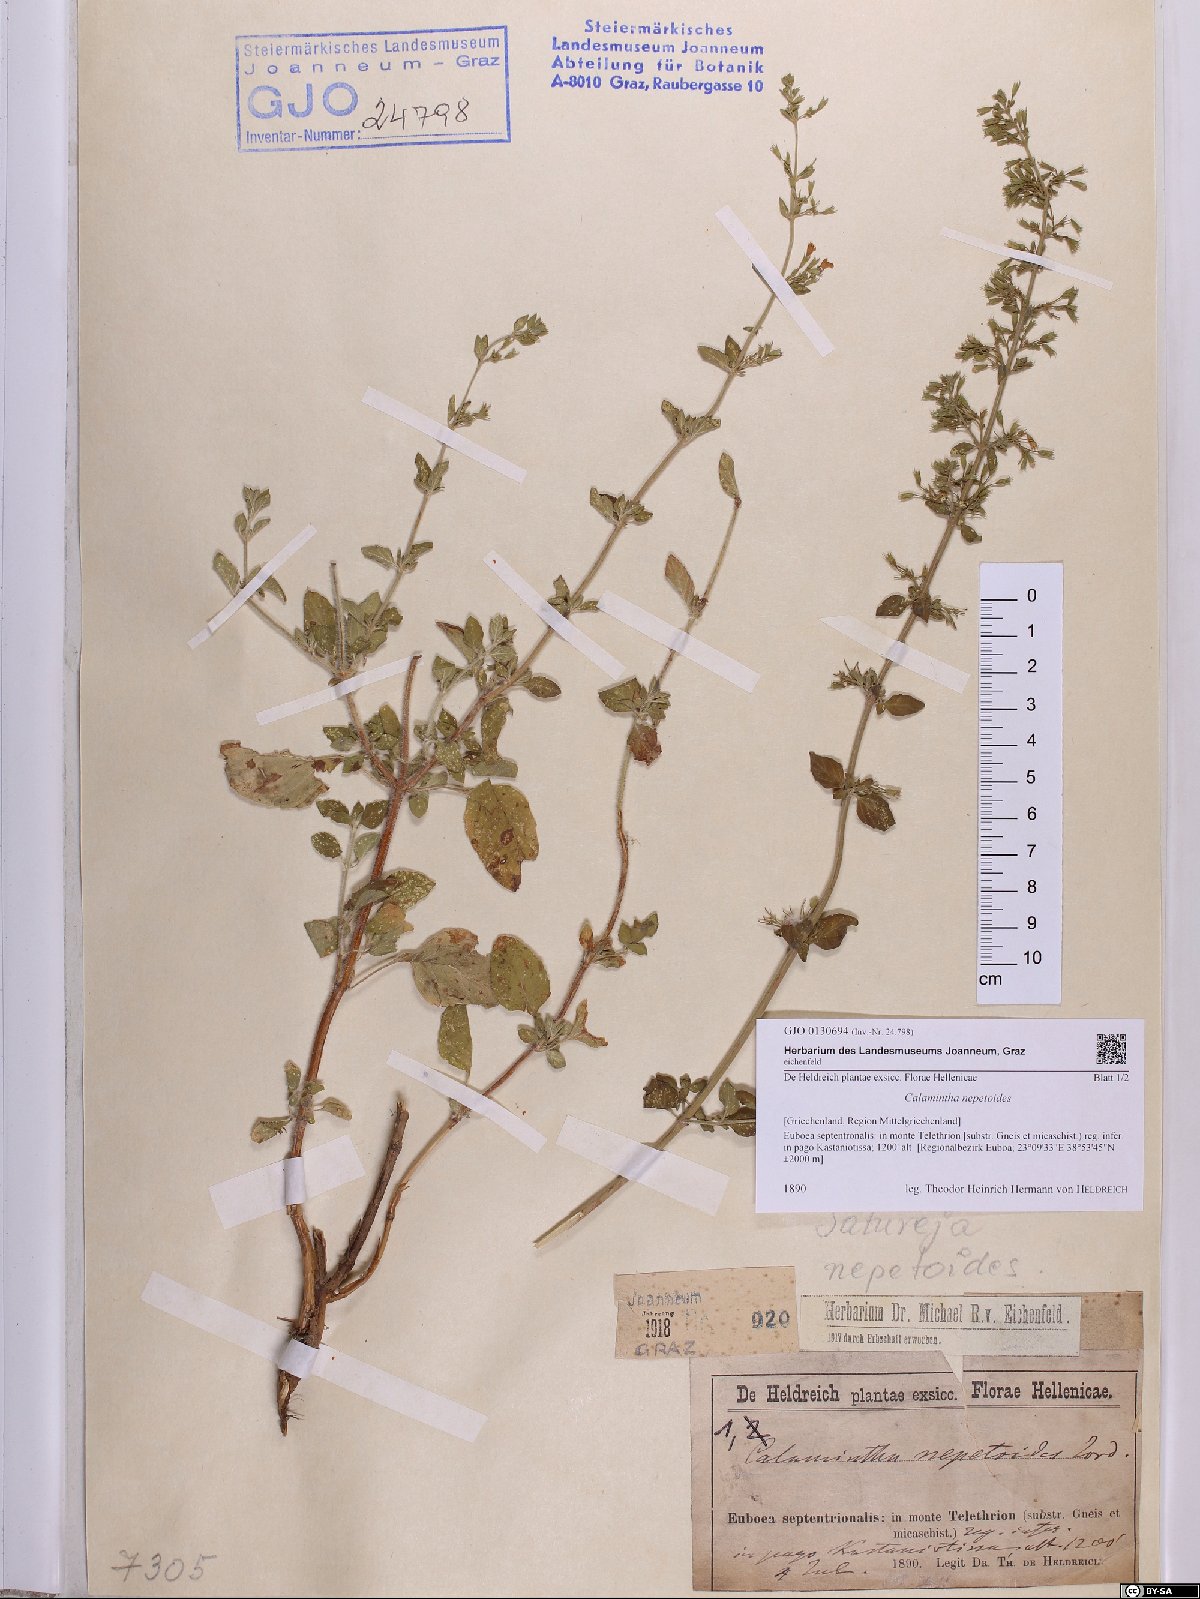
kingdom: Plantae
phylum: Tracheophyta
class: Magnoliopsida
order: Lamiales
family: Lamiaceae
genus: Clinopodium
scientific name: Clinopodium nepeta
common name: Lesser calamint
